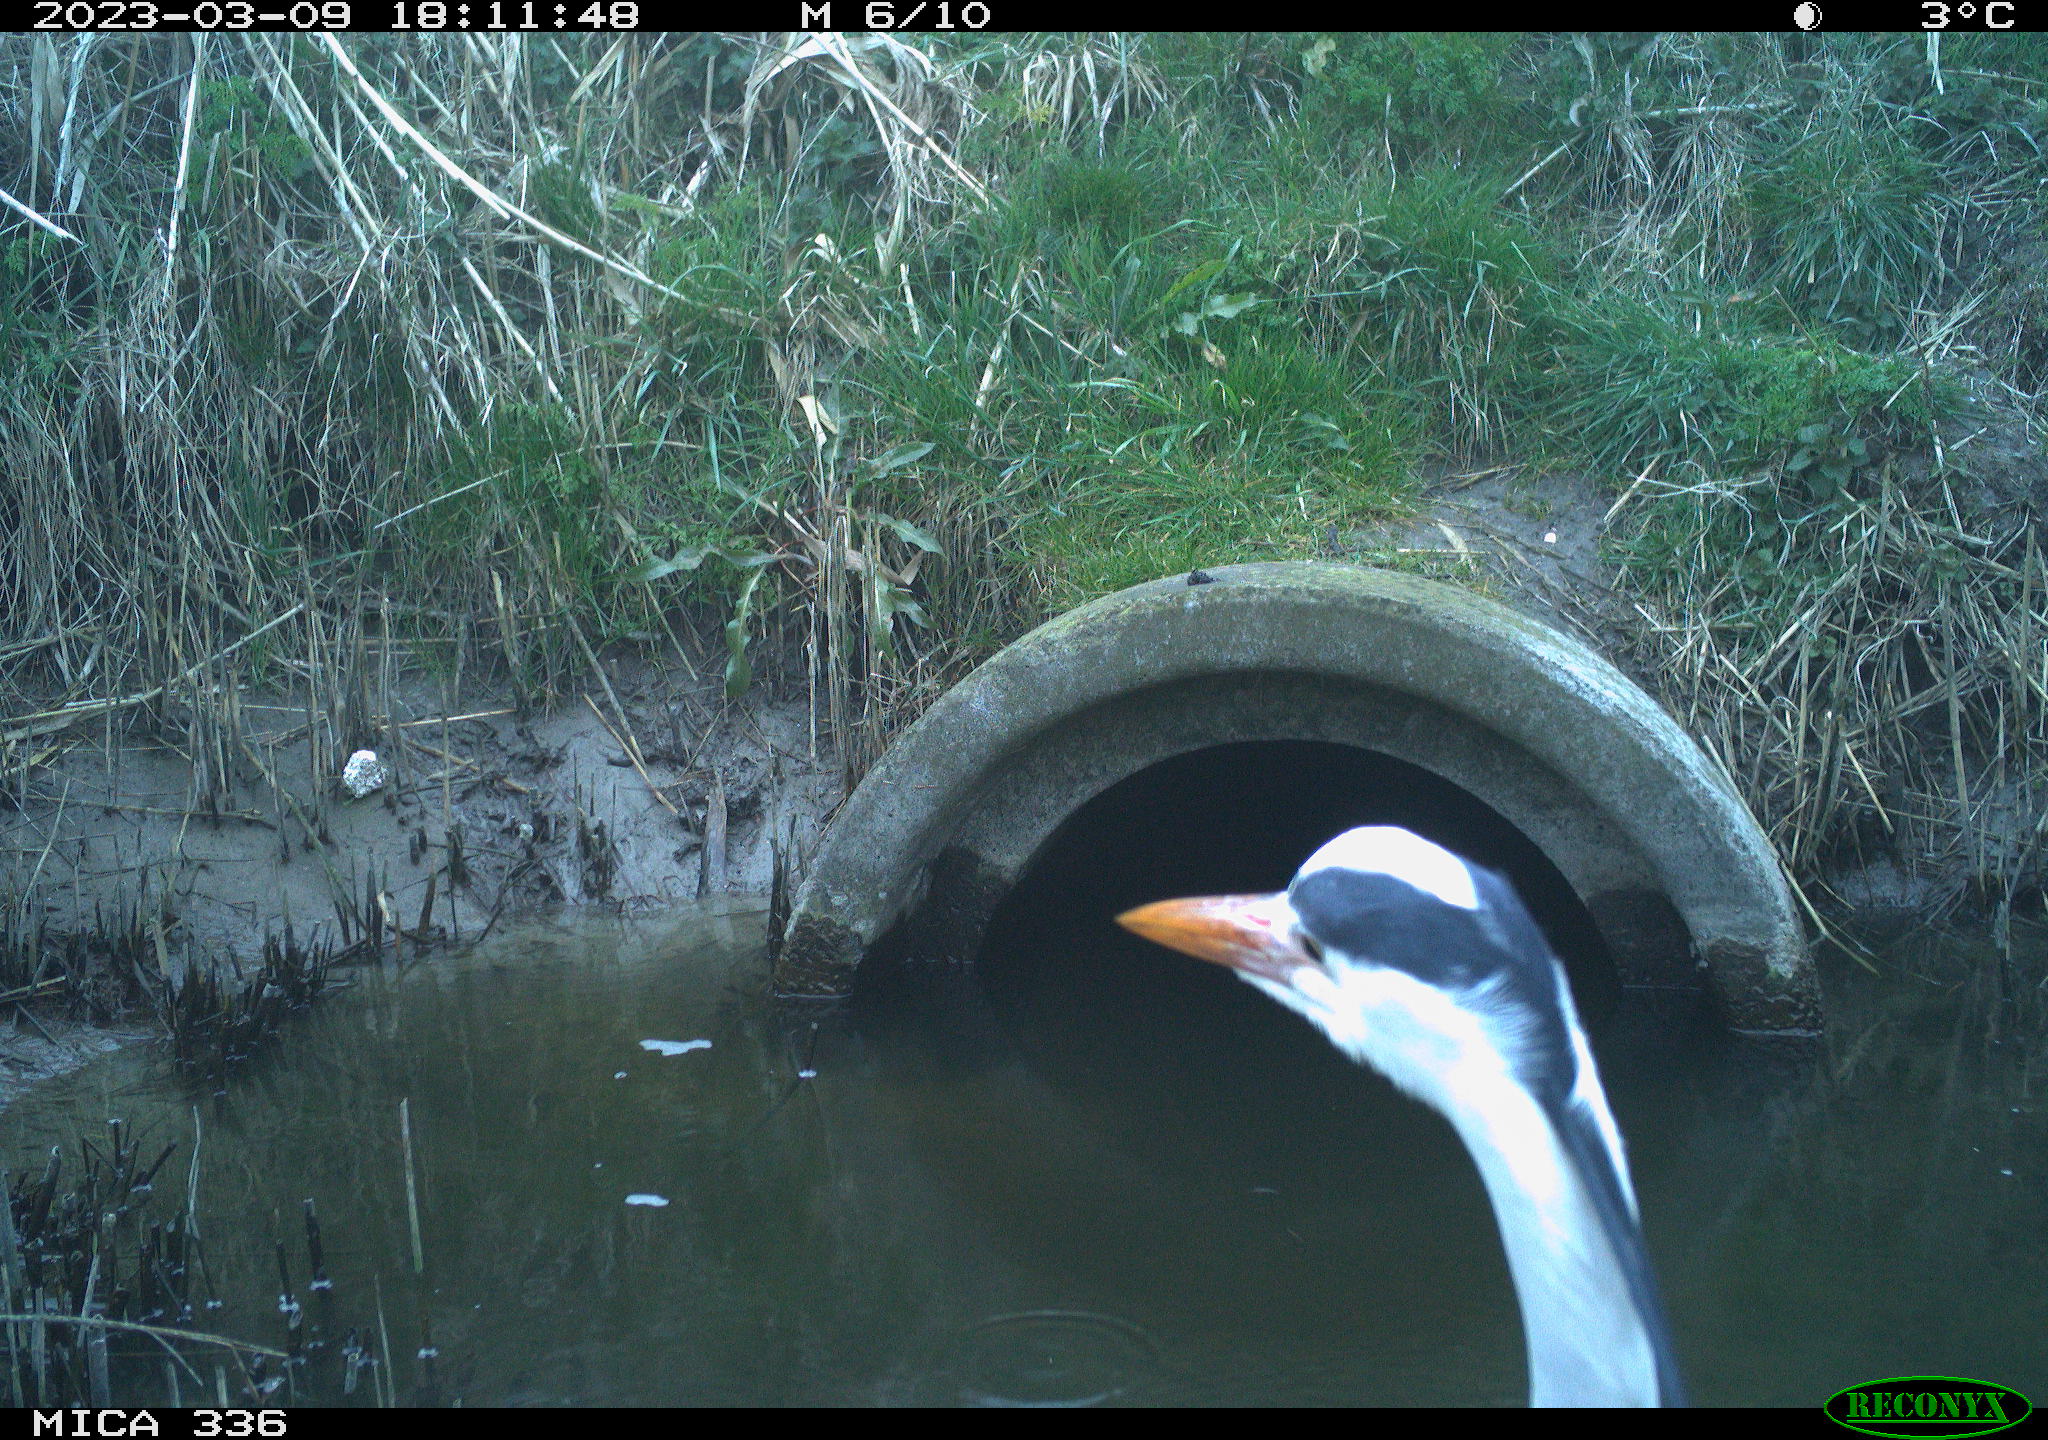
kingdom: Animalia
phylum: Chordata
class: Aves
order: Pelecaniformes
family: Ardeidae
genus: Ardea
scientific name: Ardea cinerea
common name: Grey heron
